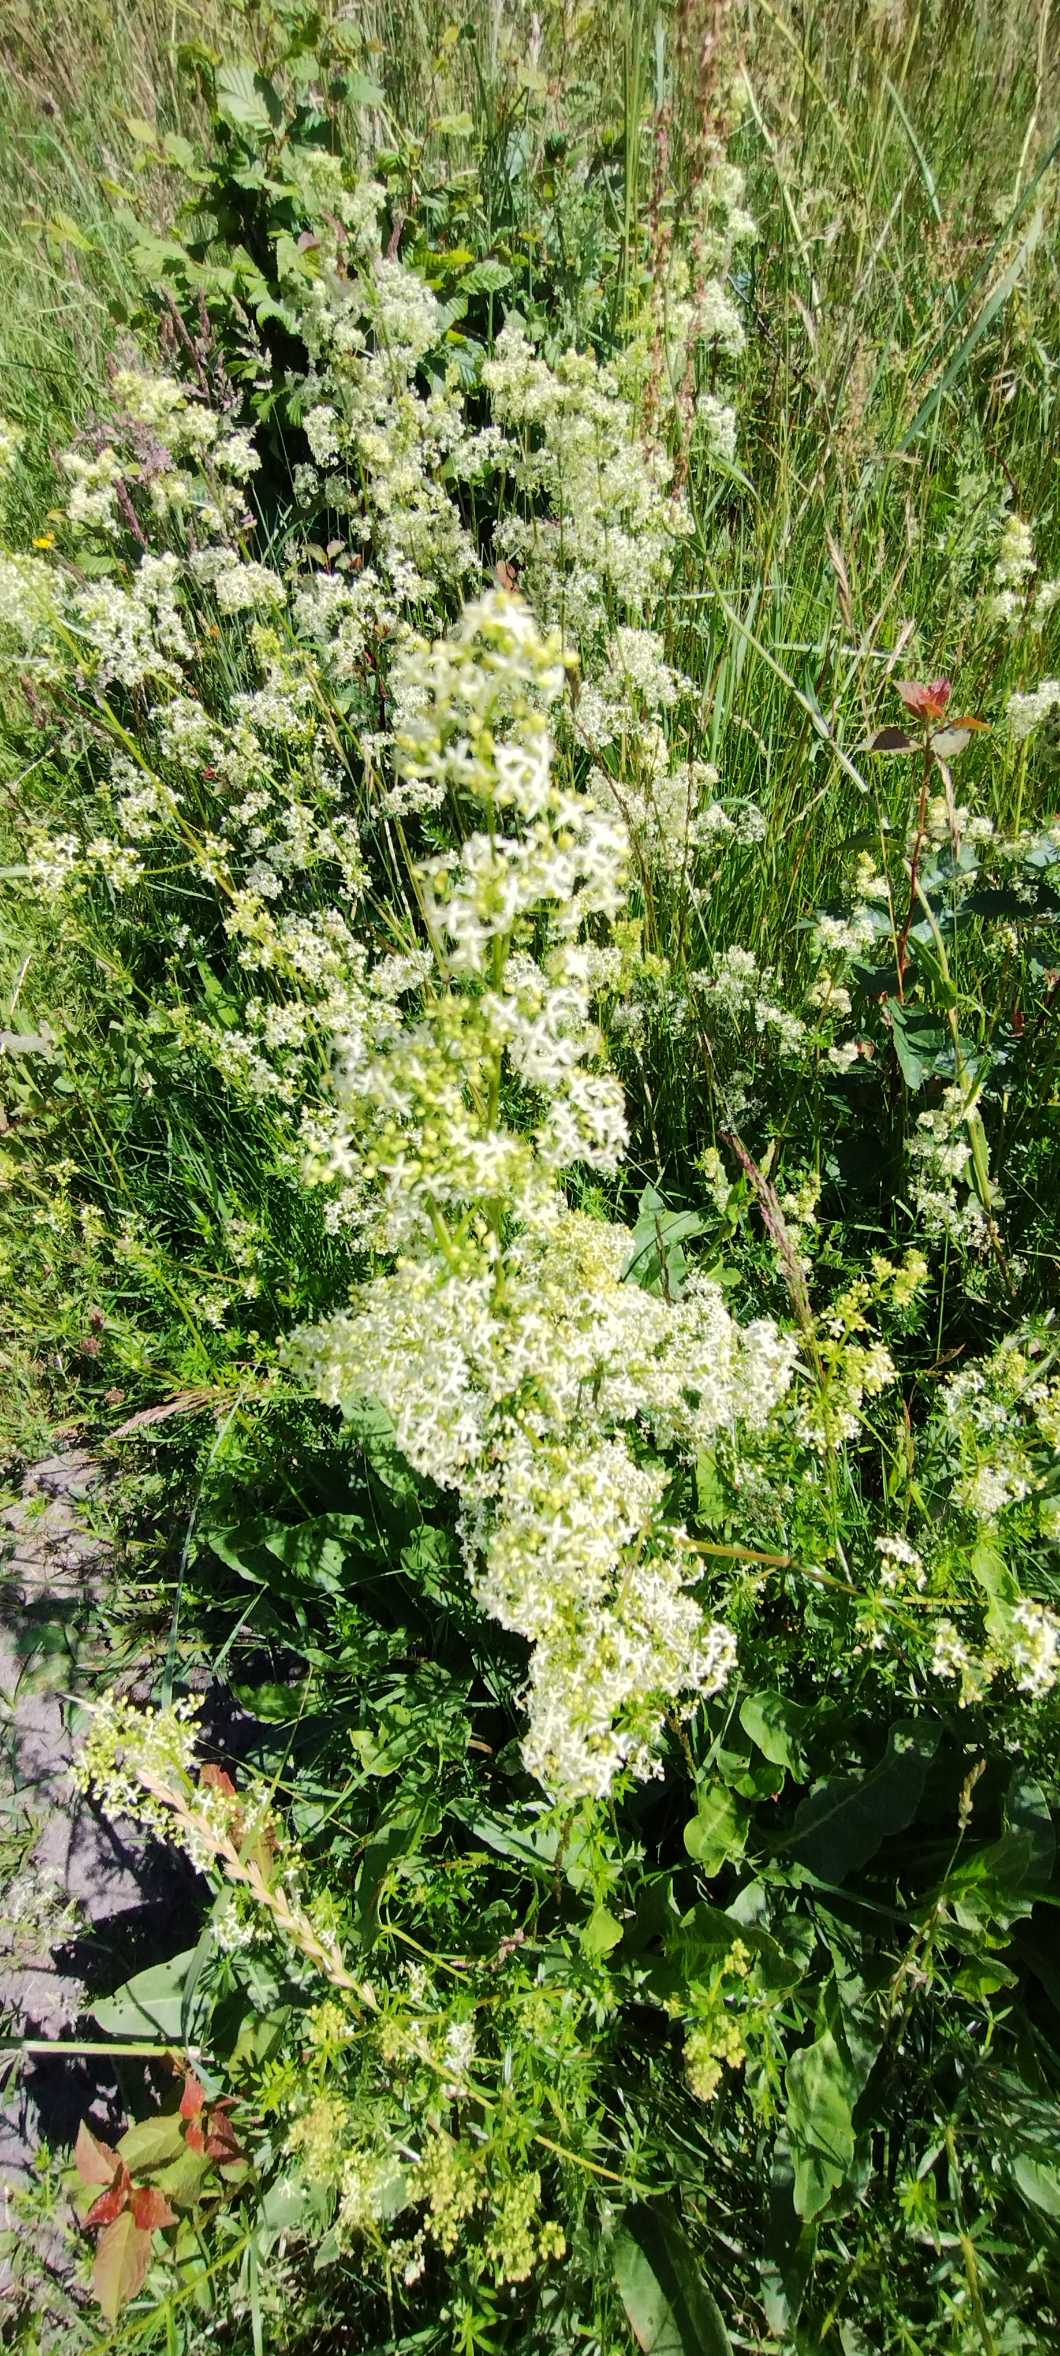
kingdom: Plantae
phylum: Tracheophyta
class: Magnoliopsida
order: Gentianales
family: Rubiaceae
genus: Galium
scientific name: Galium mollugo
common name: Hvid snerre
